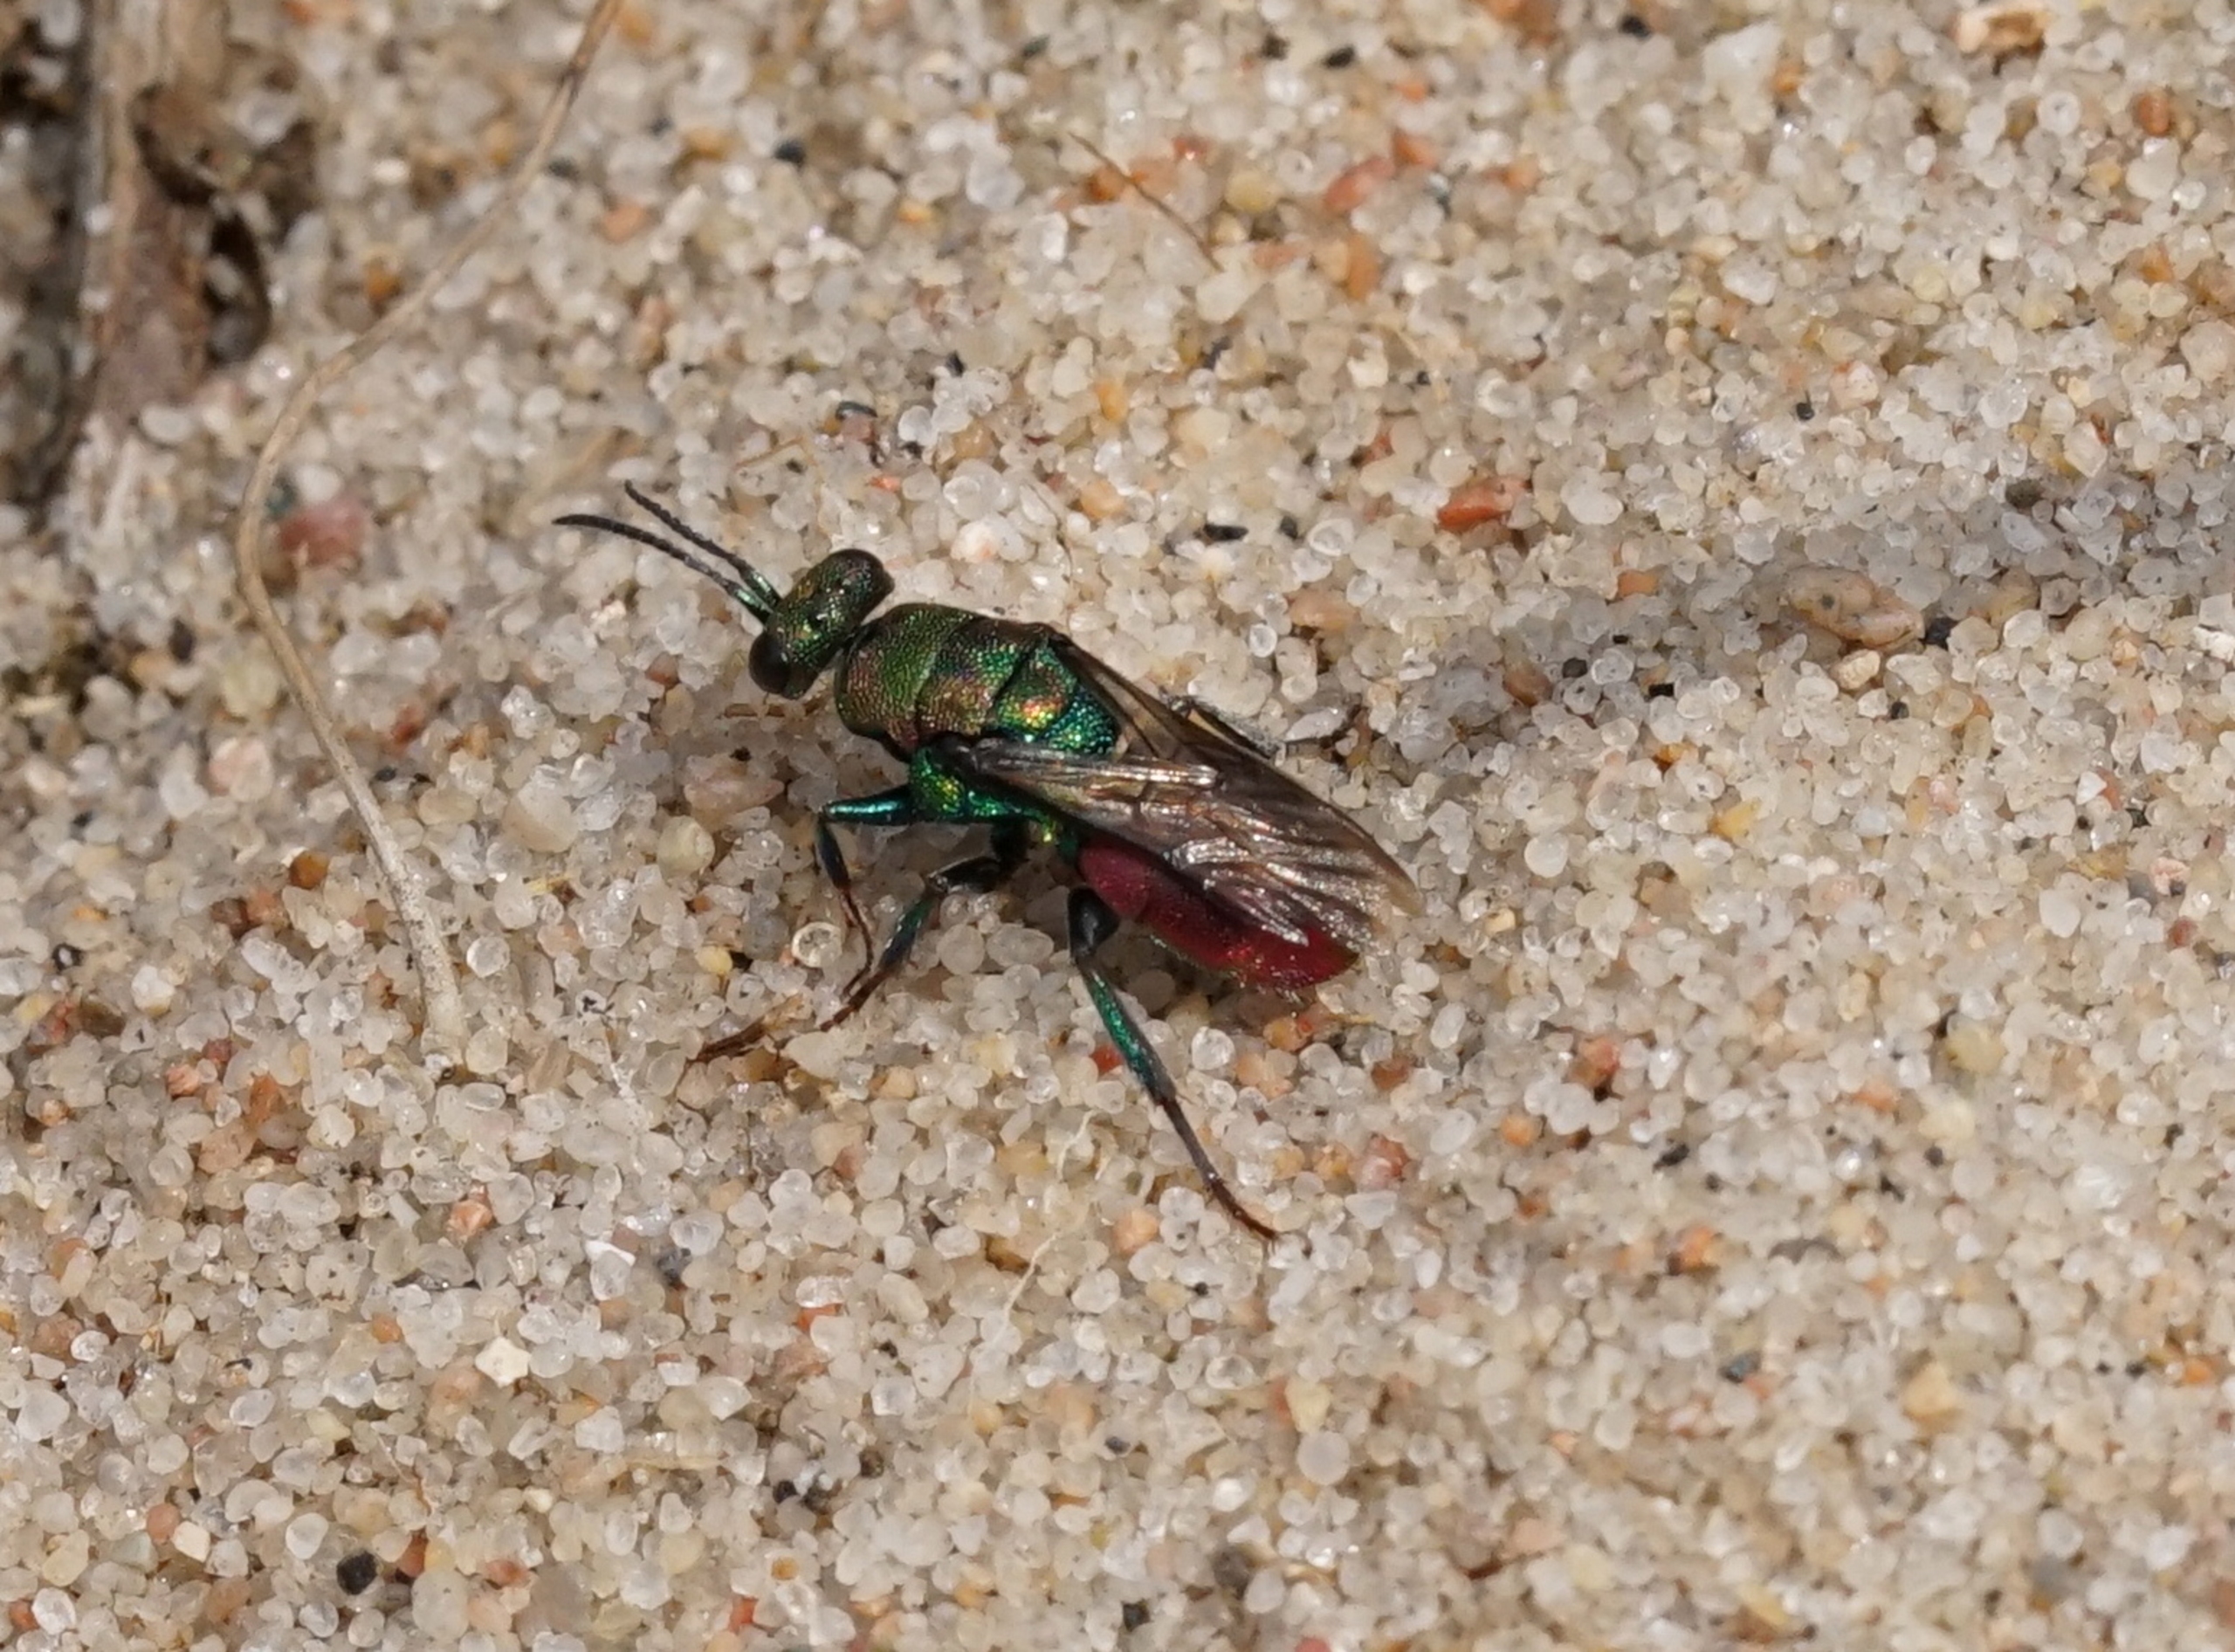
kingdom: Animalia
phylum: Arthropoda
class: Insecta
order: Hymenoptera
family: Chrysididae
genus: Hedychrum
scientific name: Hedychrum rutilans
